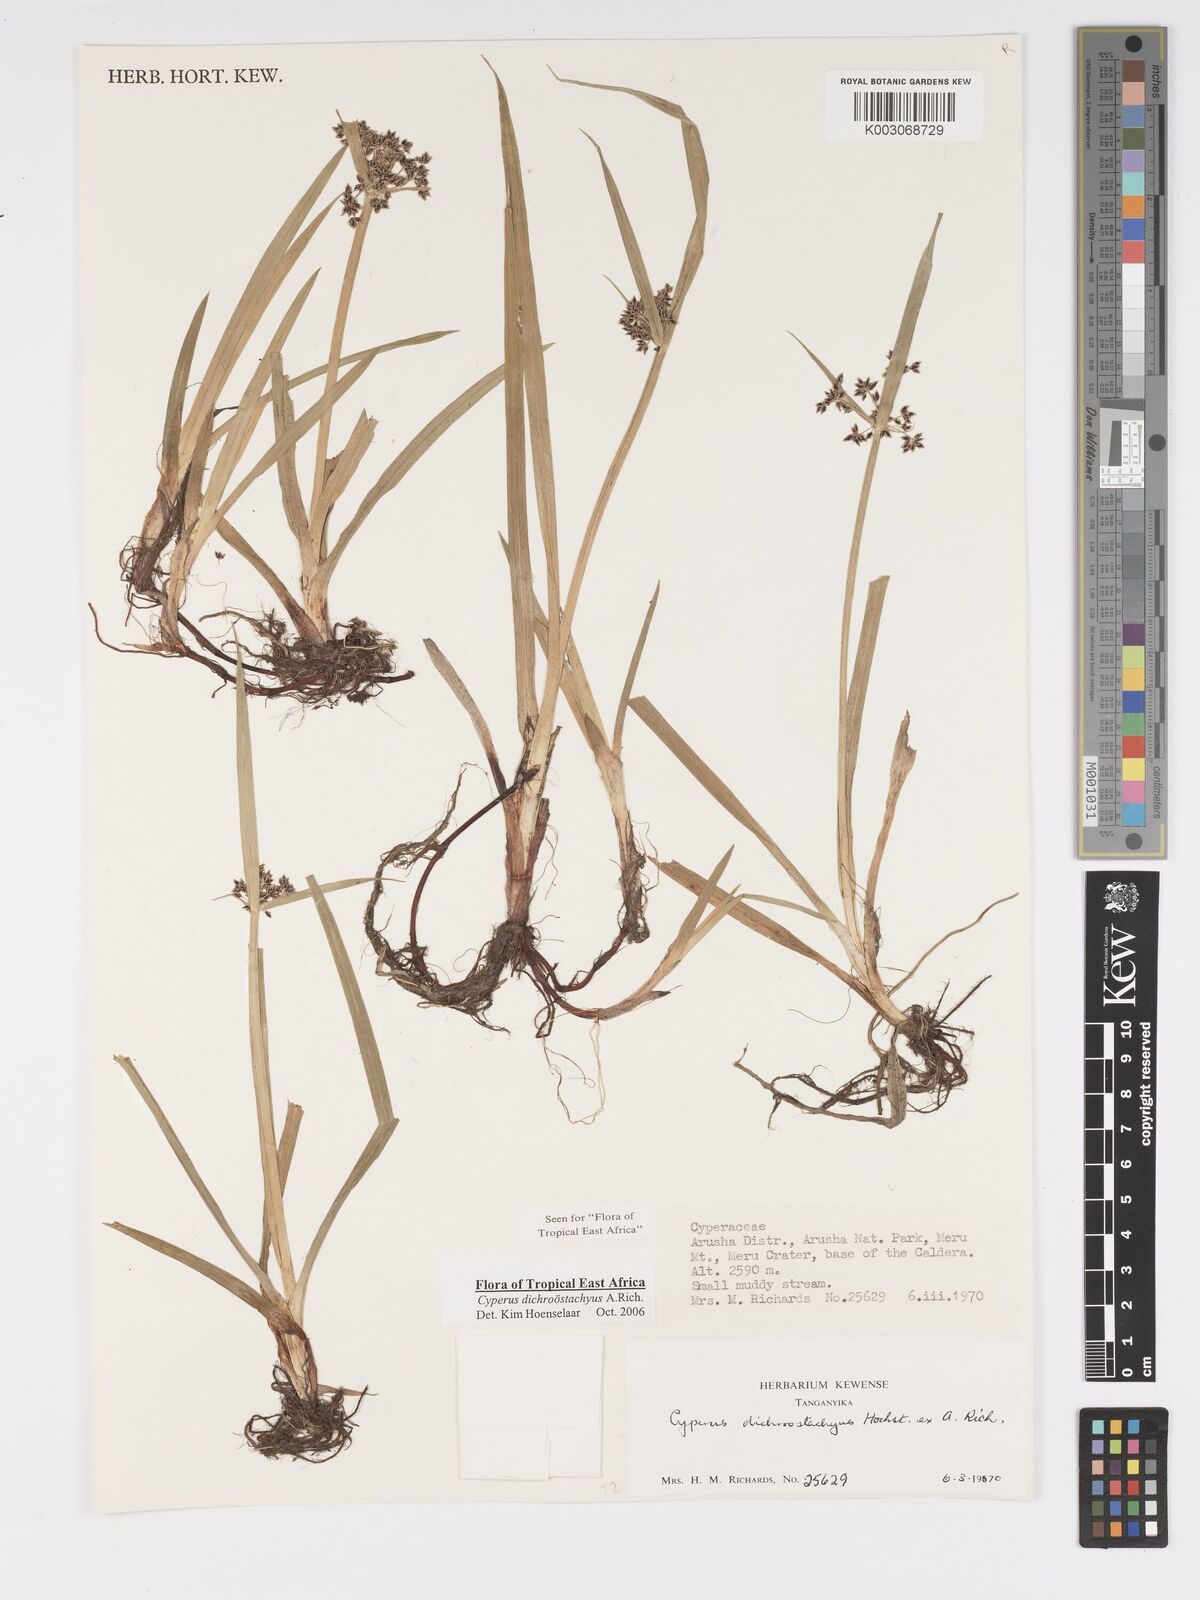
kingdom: Plantae
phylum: Tracheophyta
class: Liliopsida
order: Poales
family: Cyperaceae
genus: Cyperus
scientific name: Cyperus dichrostachyus
